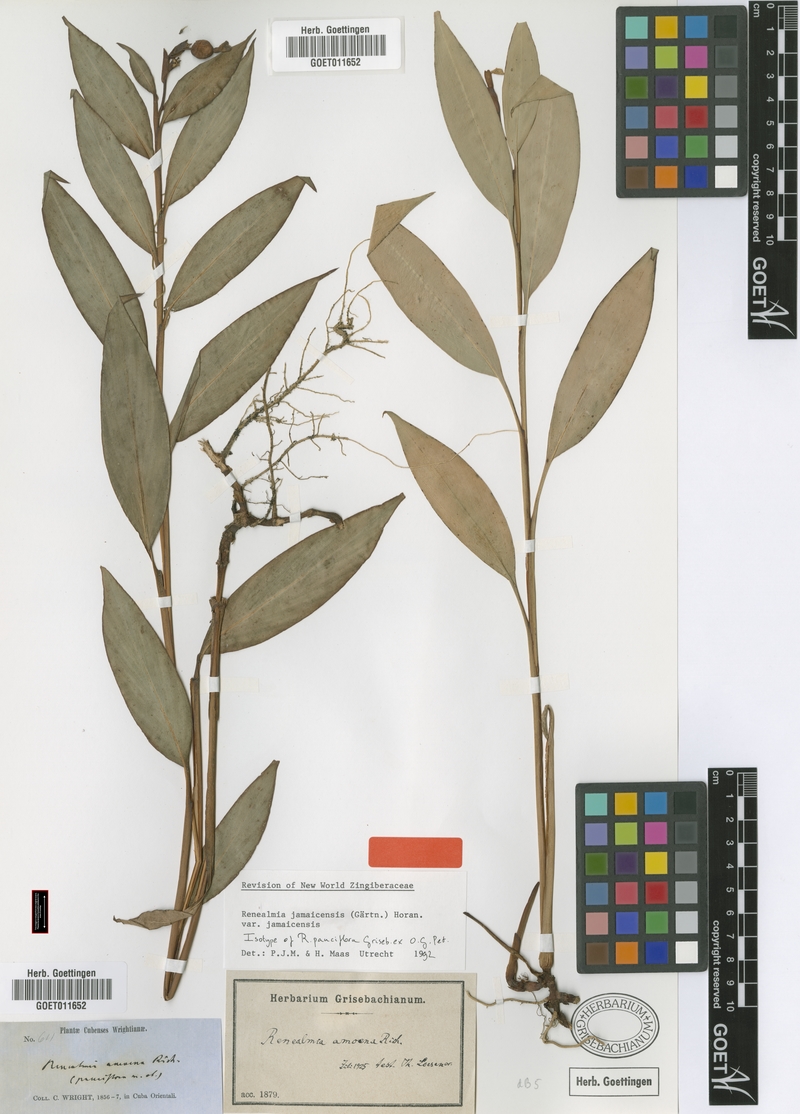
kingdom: Plantae
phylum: Tracheophyta
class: Liliopsida
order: Zingiberales
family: Zingiberaceae
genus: Renealmia
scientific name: Renealmia jamaicensis
